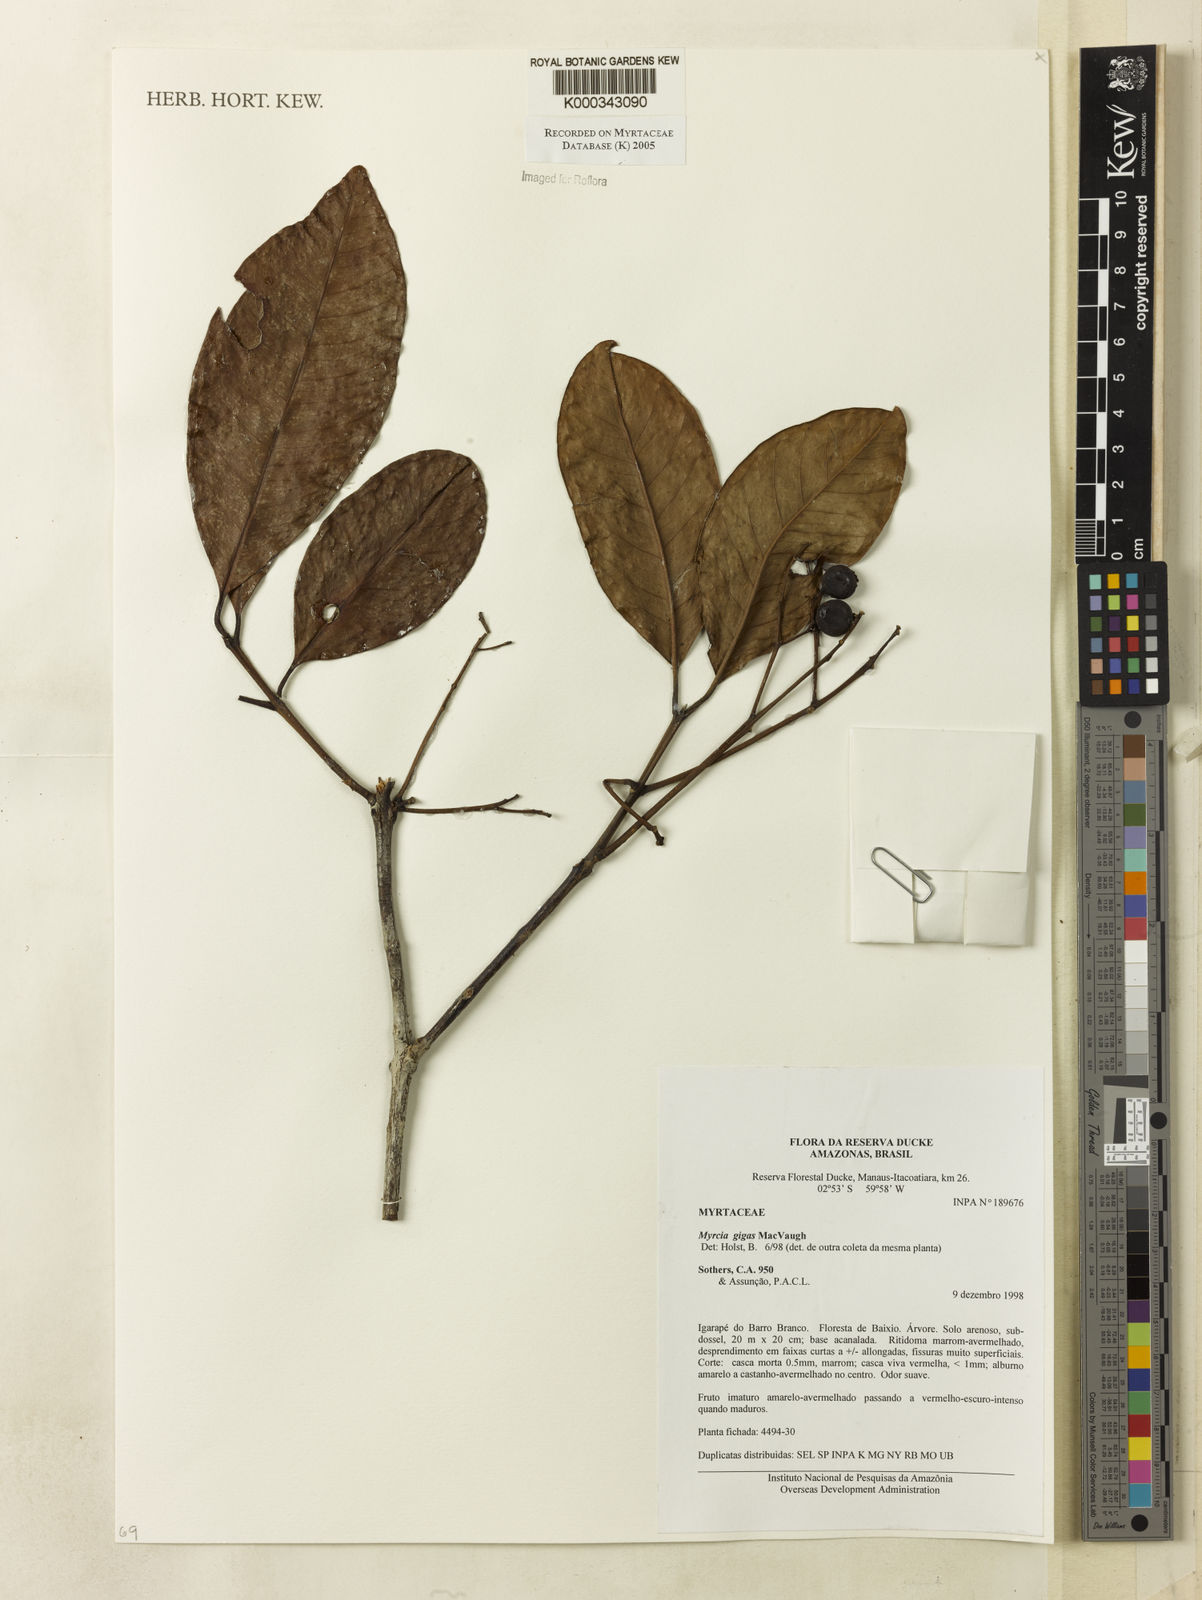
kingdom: Plantae
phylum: Tracheophyta
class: Magnoliopsida
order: Myrtales
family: Myrtaceae
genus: Myrcia
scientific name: Myrcia gigas
